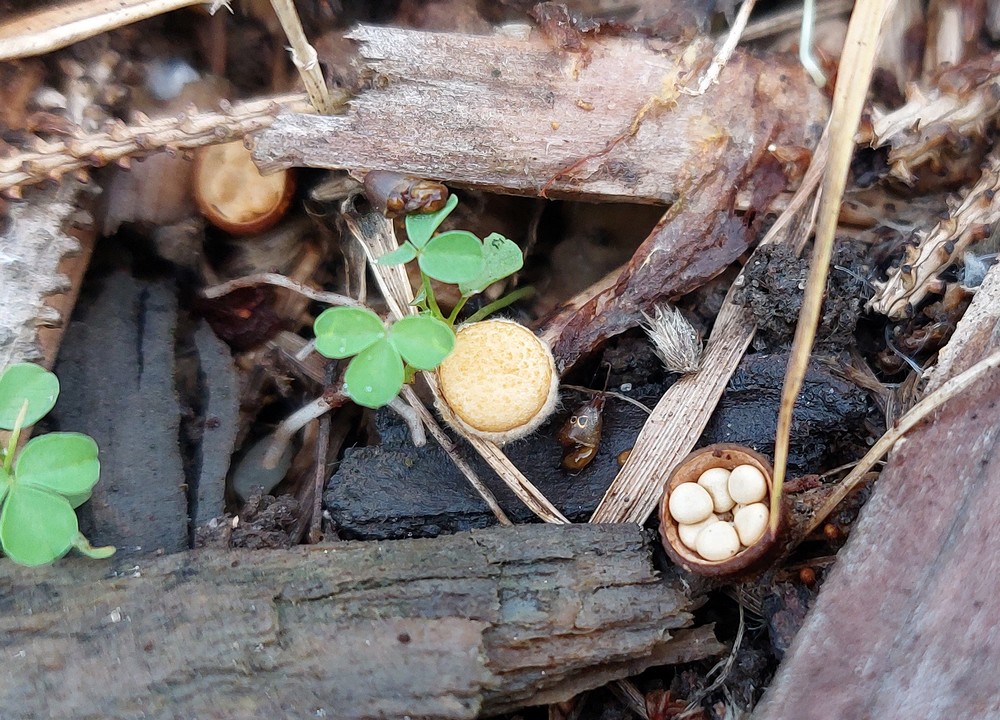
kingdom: Fungi
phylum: Basidiomycota
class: Agaricomycetes
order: Agaricales
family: Nidulariaceae
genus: Crucibulum
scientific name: Crucibulum crucibuliforme
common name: krukkesvamp
